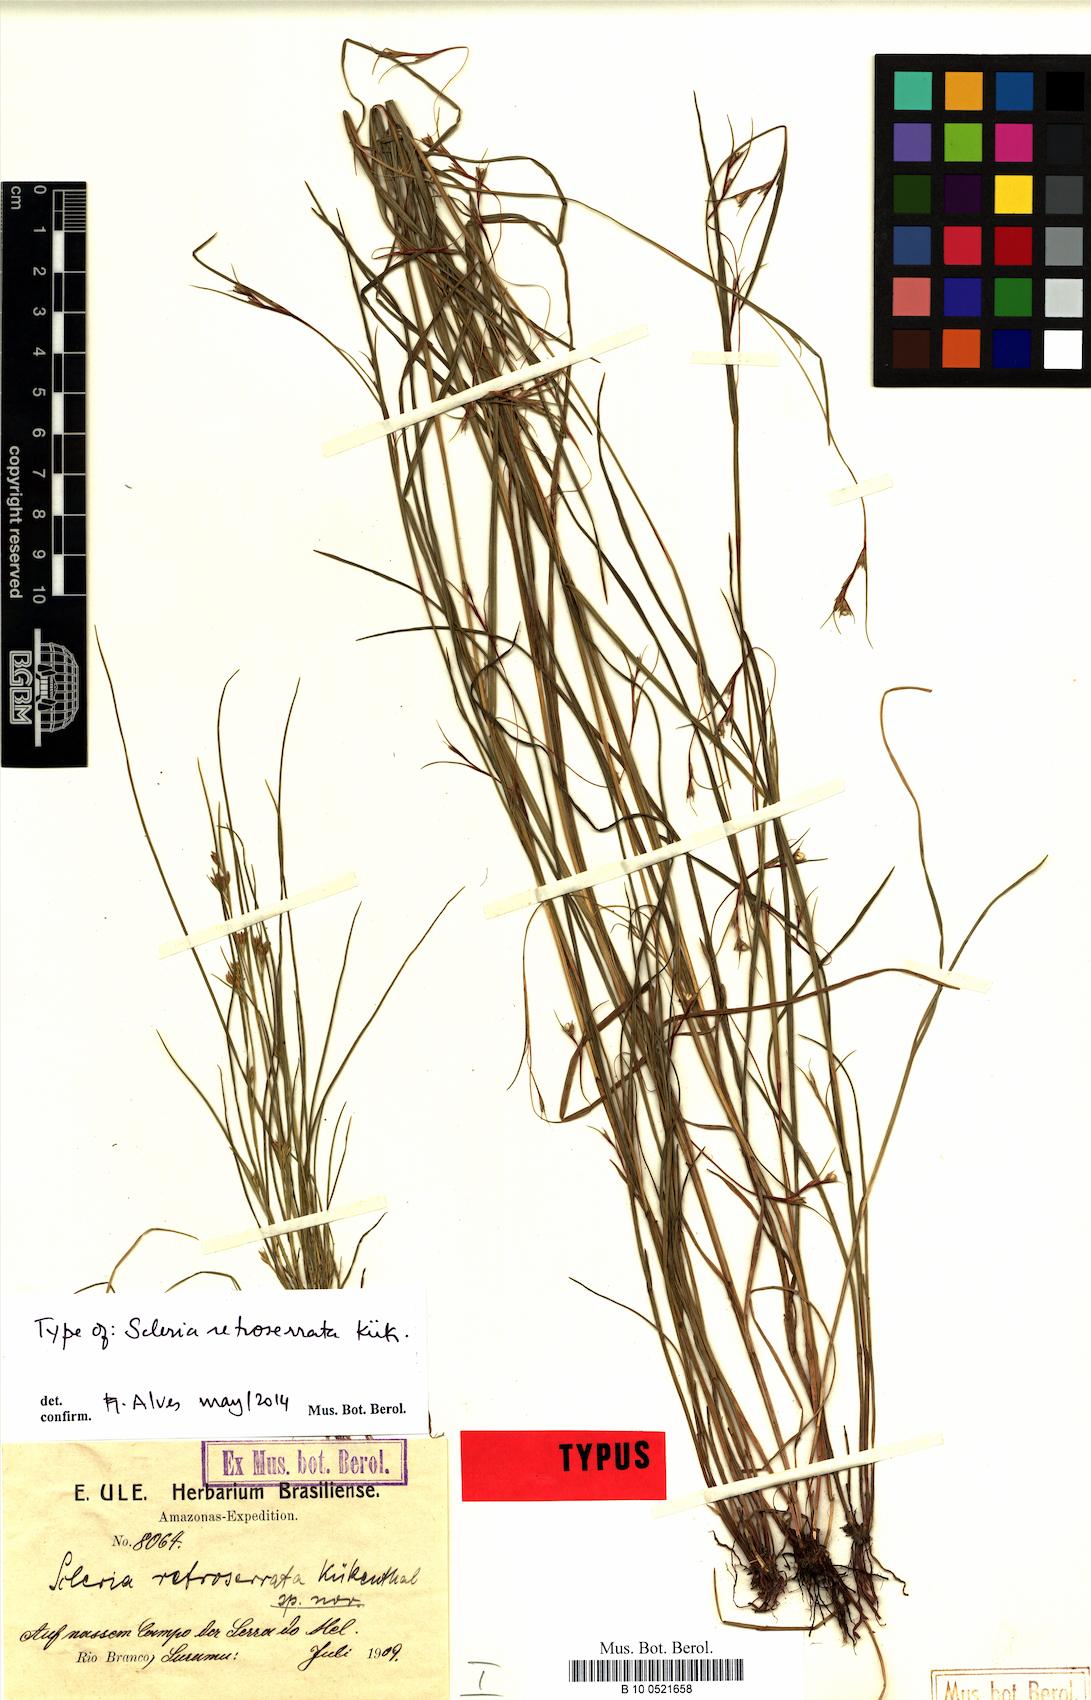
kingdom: Plantae
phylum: Tracheophyta
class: Liliopsida
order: Poales
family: Cyperaceae
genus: Scleria
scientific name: Scleria gracillima
